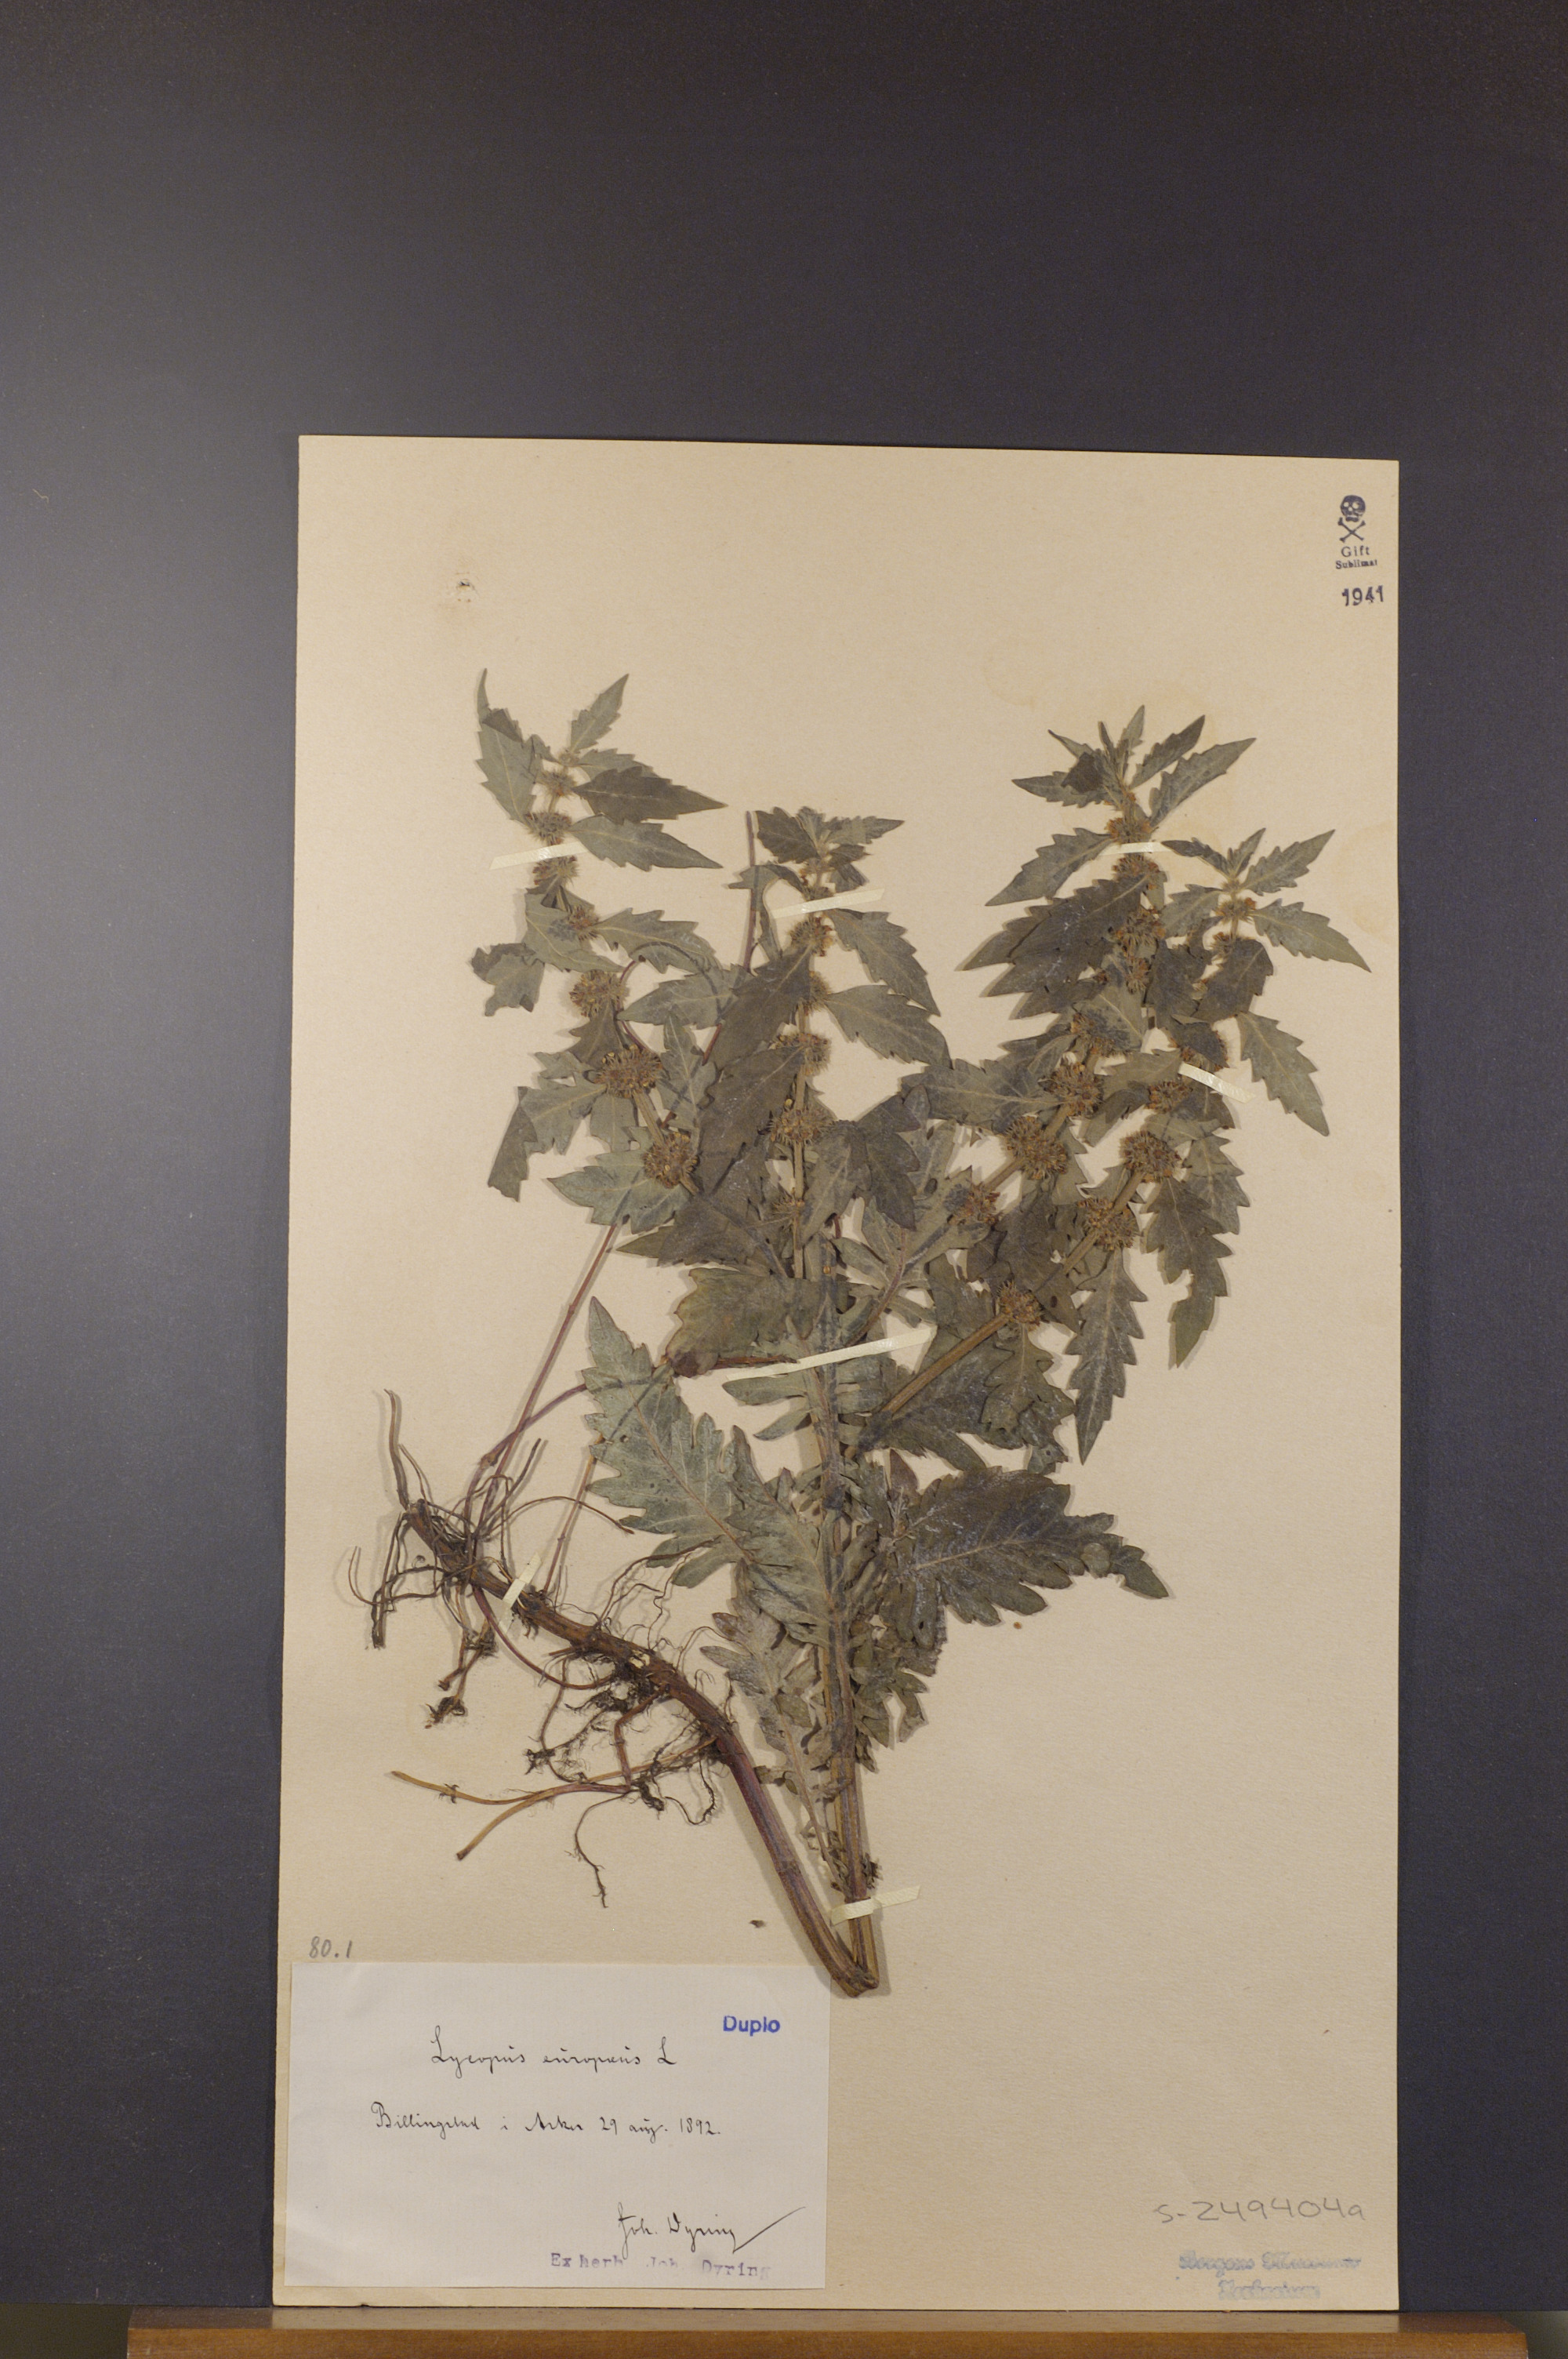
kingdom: Plantae
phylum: Tracheophyta
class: Magnoliopsida
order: Lamiales
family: Lamiaceae
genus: Lycopus
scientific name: Lycopus europaeus
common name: European bugleweed
